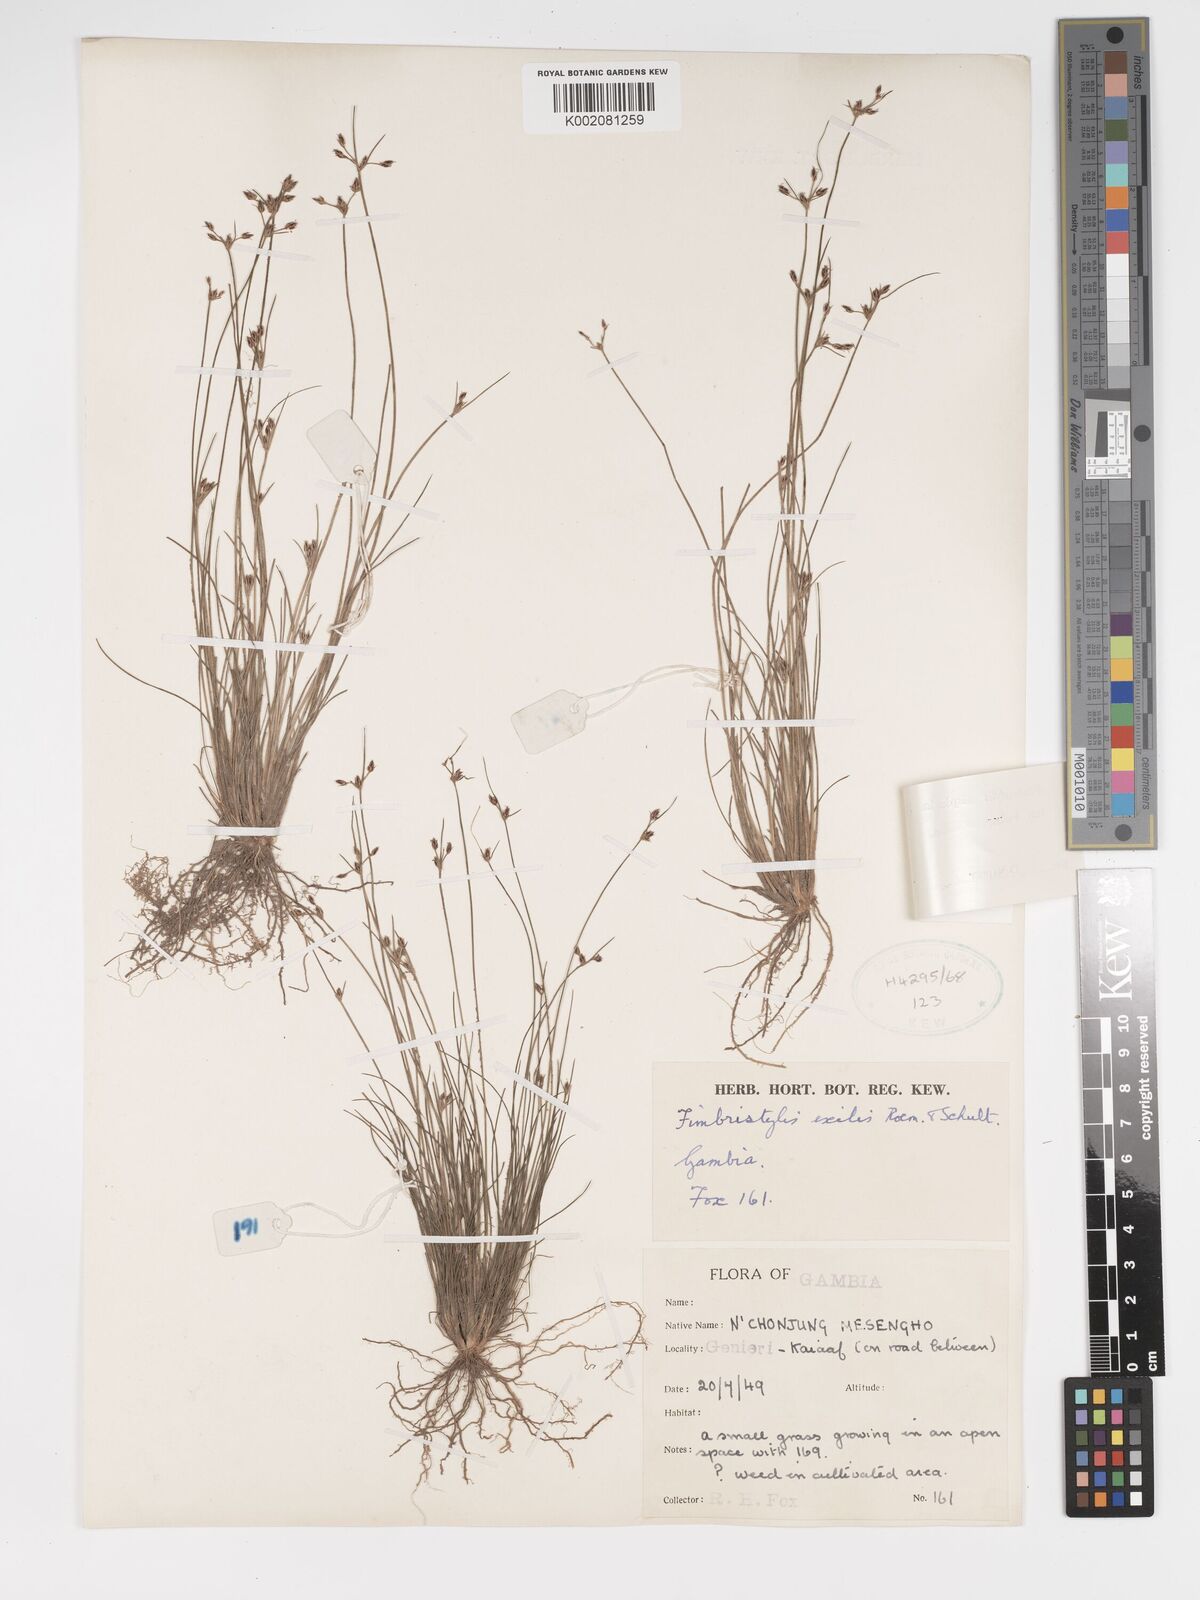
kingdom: Plantae
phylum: Tracheophyta
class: Liliopsida
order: Poales
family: Cyperaceae
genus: Bulbostylis
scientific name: Bulbostylis hispidula
